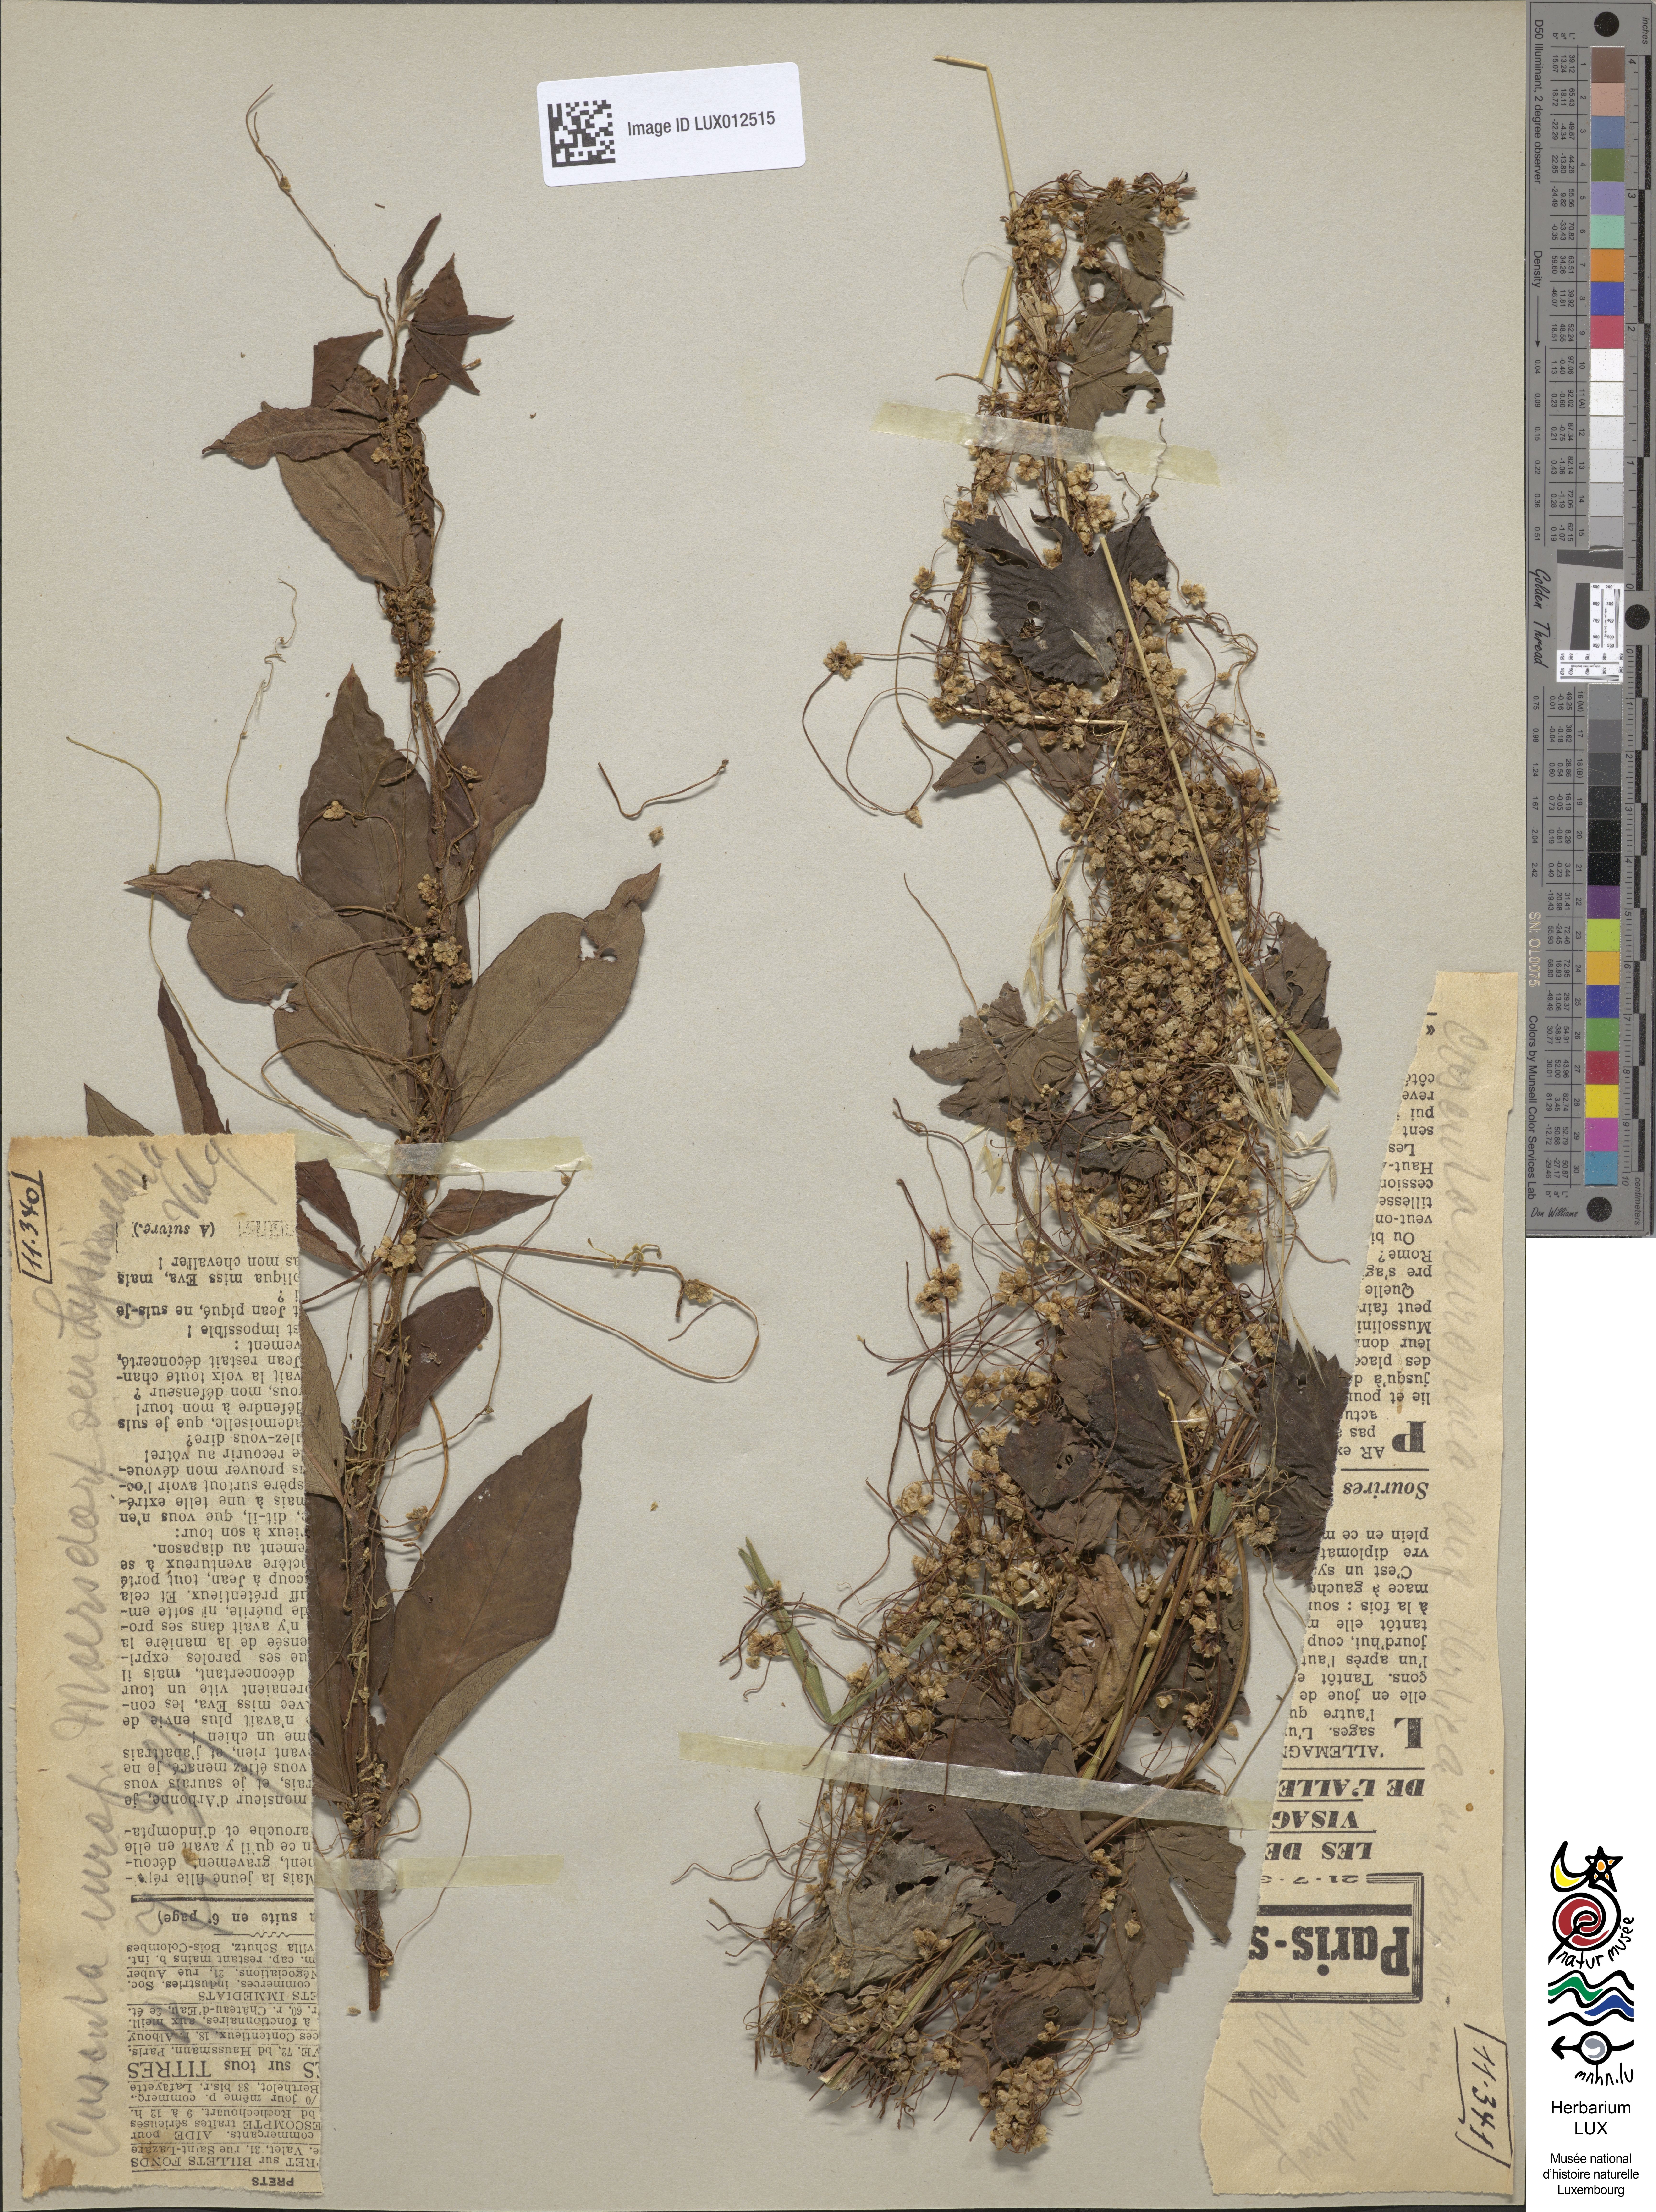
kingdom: Plantae
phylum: Tracheophyta
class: Magnoliopsida
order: Solanales
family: Convolvulaceae
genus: Cuscuta
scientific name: Cuscuta europaea
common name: Greater dodder
